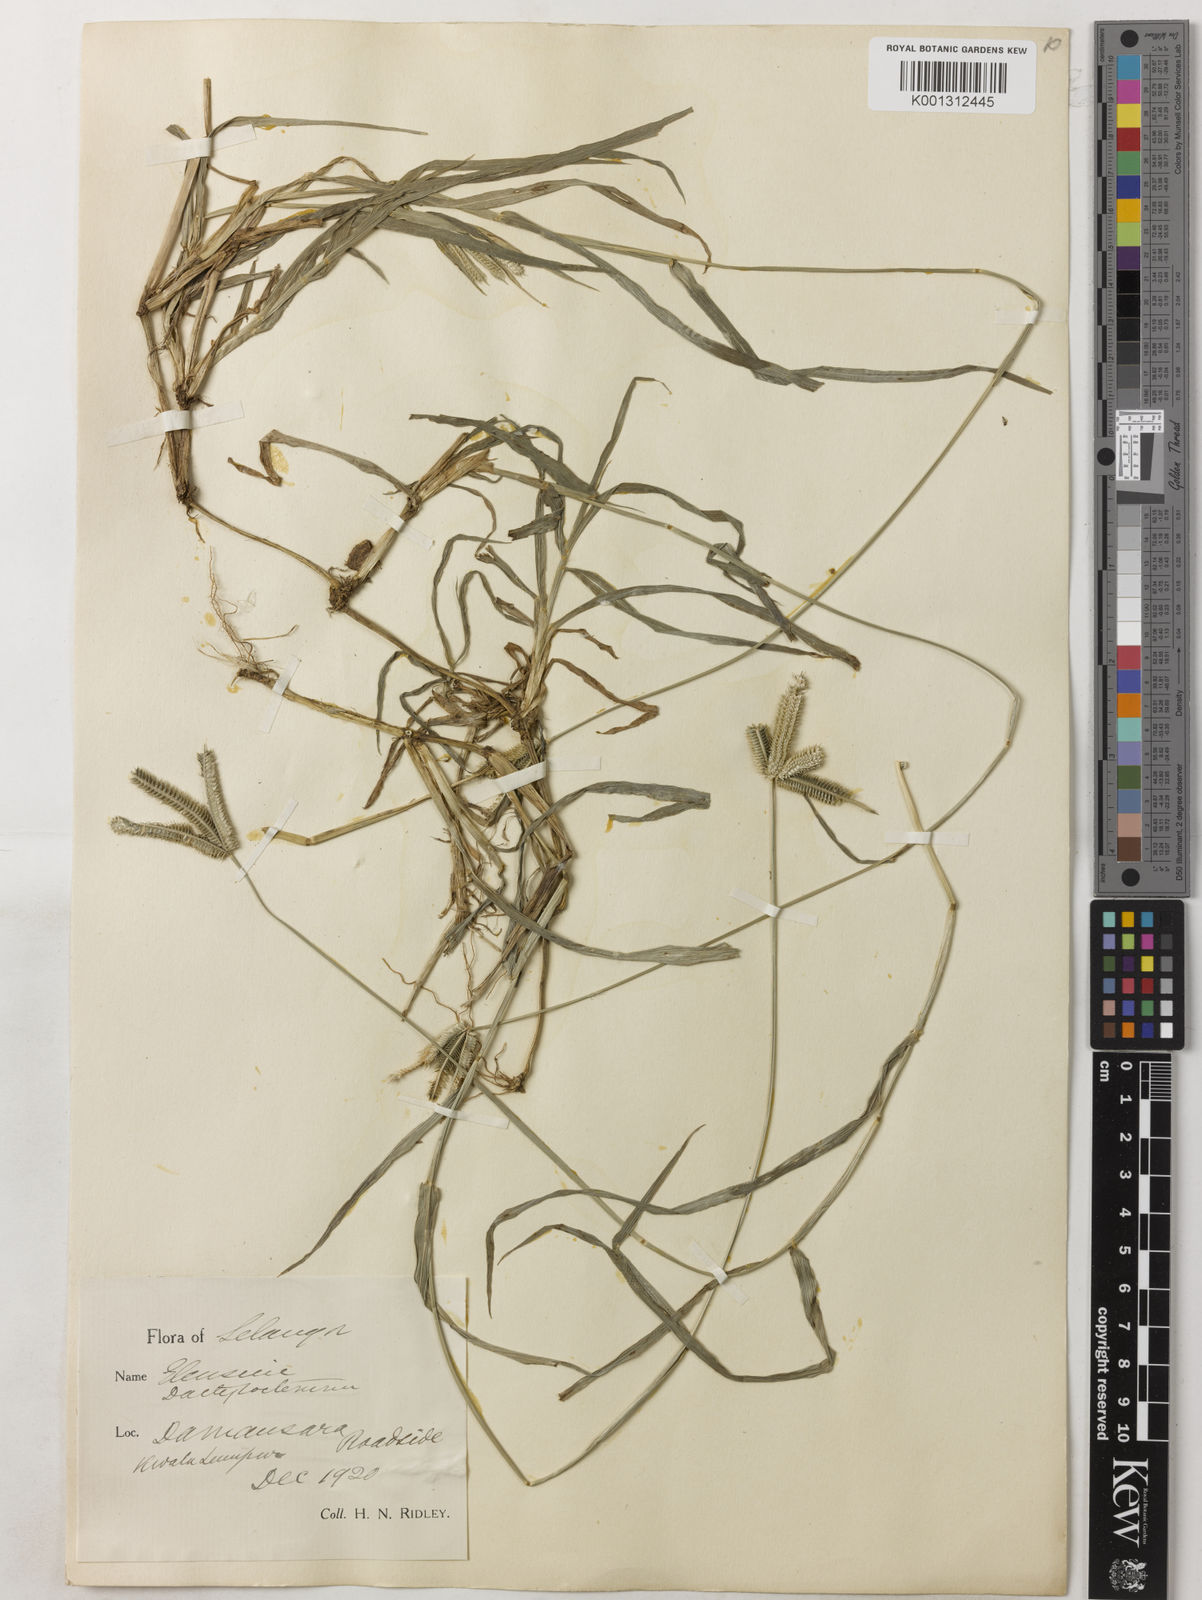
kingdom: Plantae
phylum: Tracheophyta
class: Liliopsida
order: Poales
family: Poaceae
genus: Dactyloctenium
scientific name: Dactyloctenium aegyptium
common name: Egyptian grass
